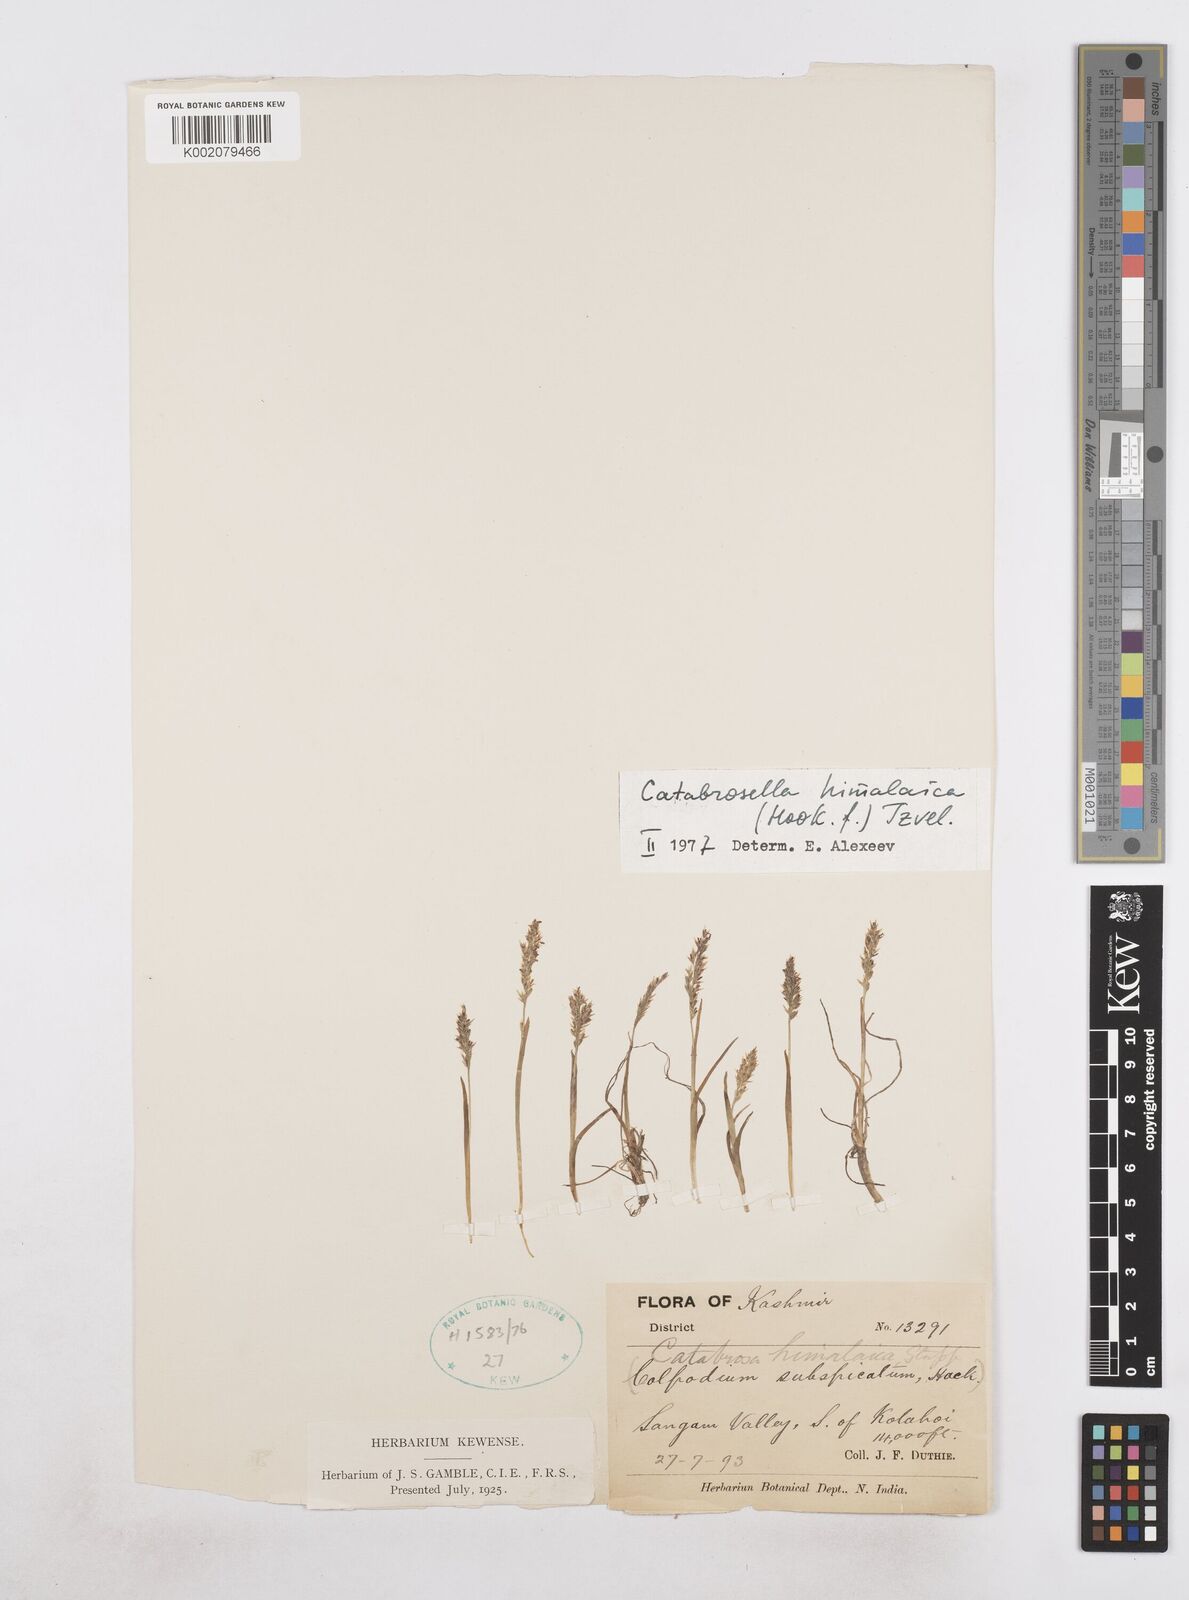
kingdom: Plantae
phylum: Tracheophyta
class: Liliopsida
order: Poales
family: Poaceae
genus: Catabrosella
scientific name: Catabrosella himalaica
